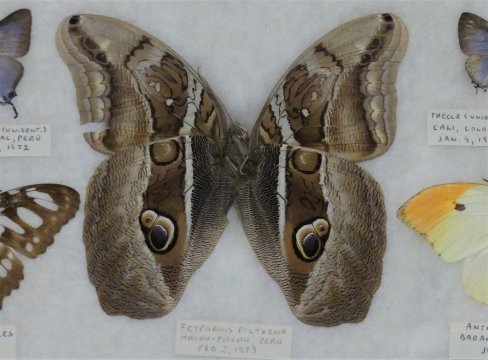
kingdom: Animalia
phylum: Arthropoda
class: Insecta
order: Lepidoptera
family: Nymphalidae
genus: Eryphanis
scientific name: Eryphanis lycomedon
